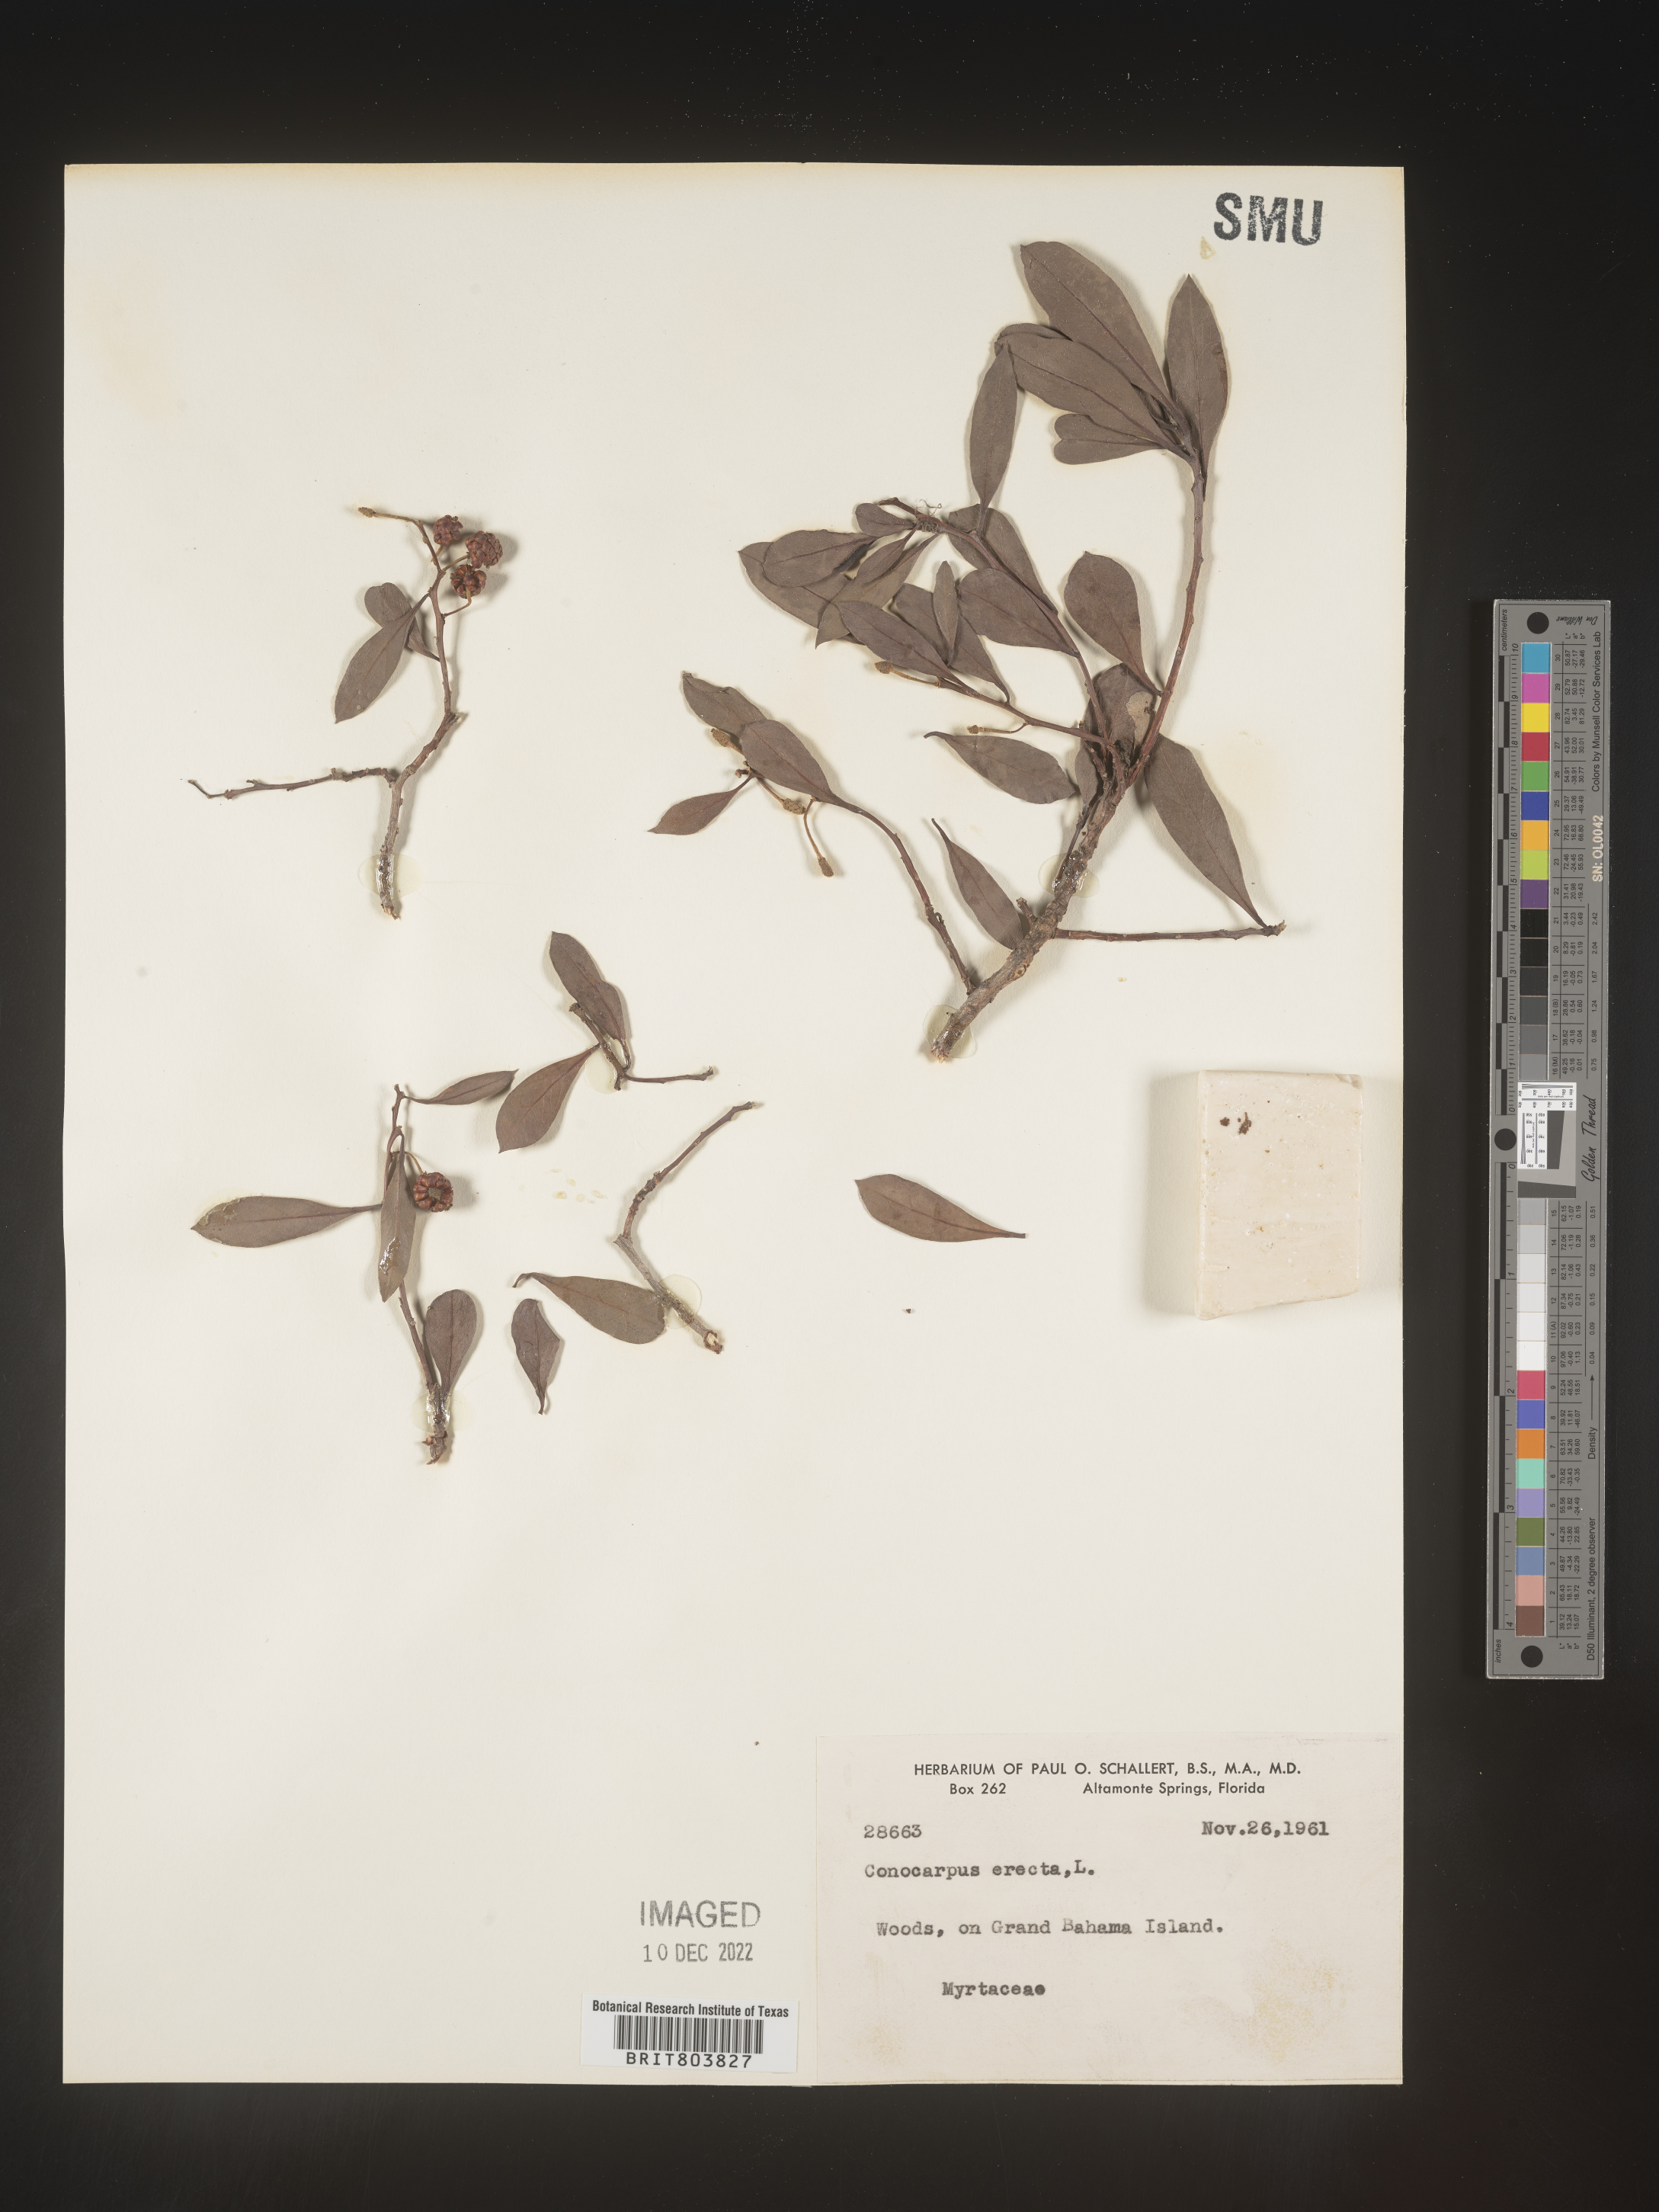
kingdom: Plantae
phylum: Tracheophyta
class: Magnoliopsida
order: Myrtales
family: Combretaceae
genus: Conocarpus
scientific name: Conocarpus
